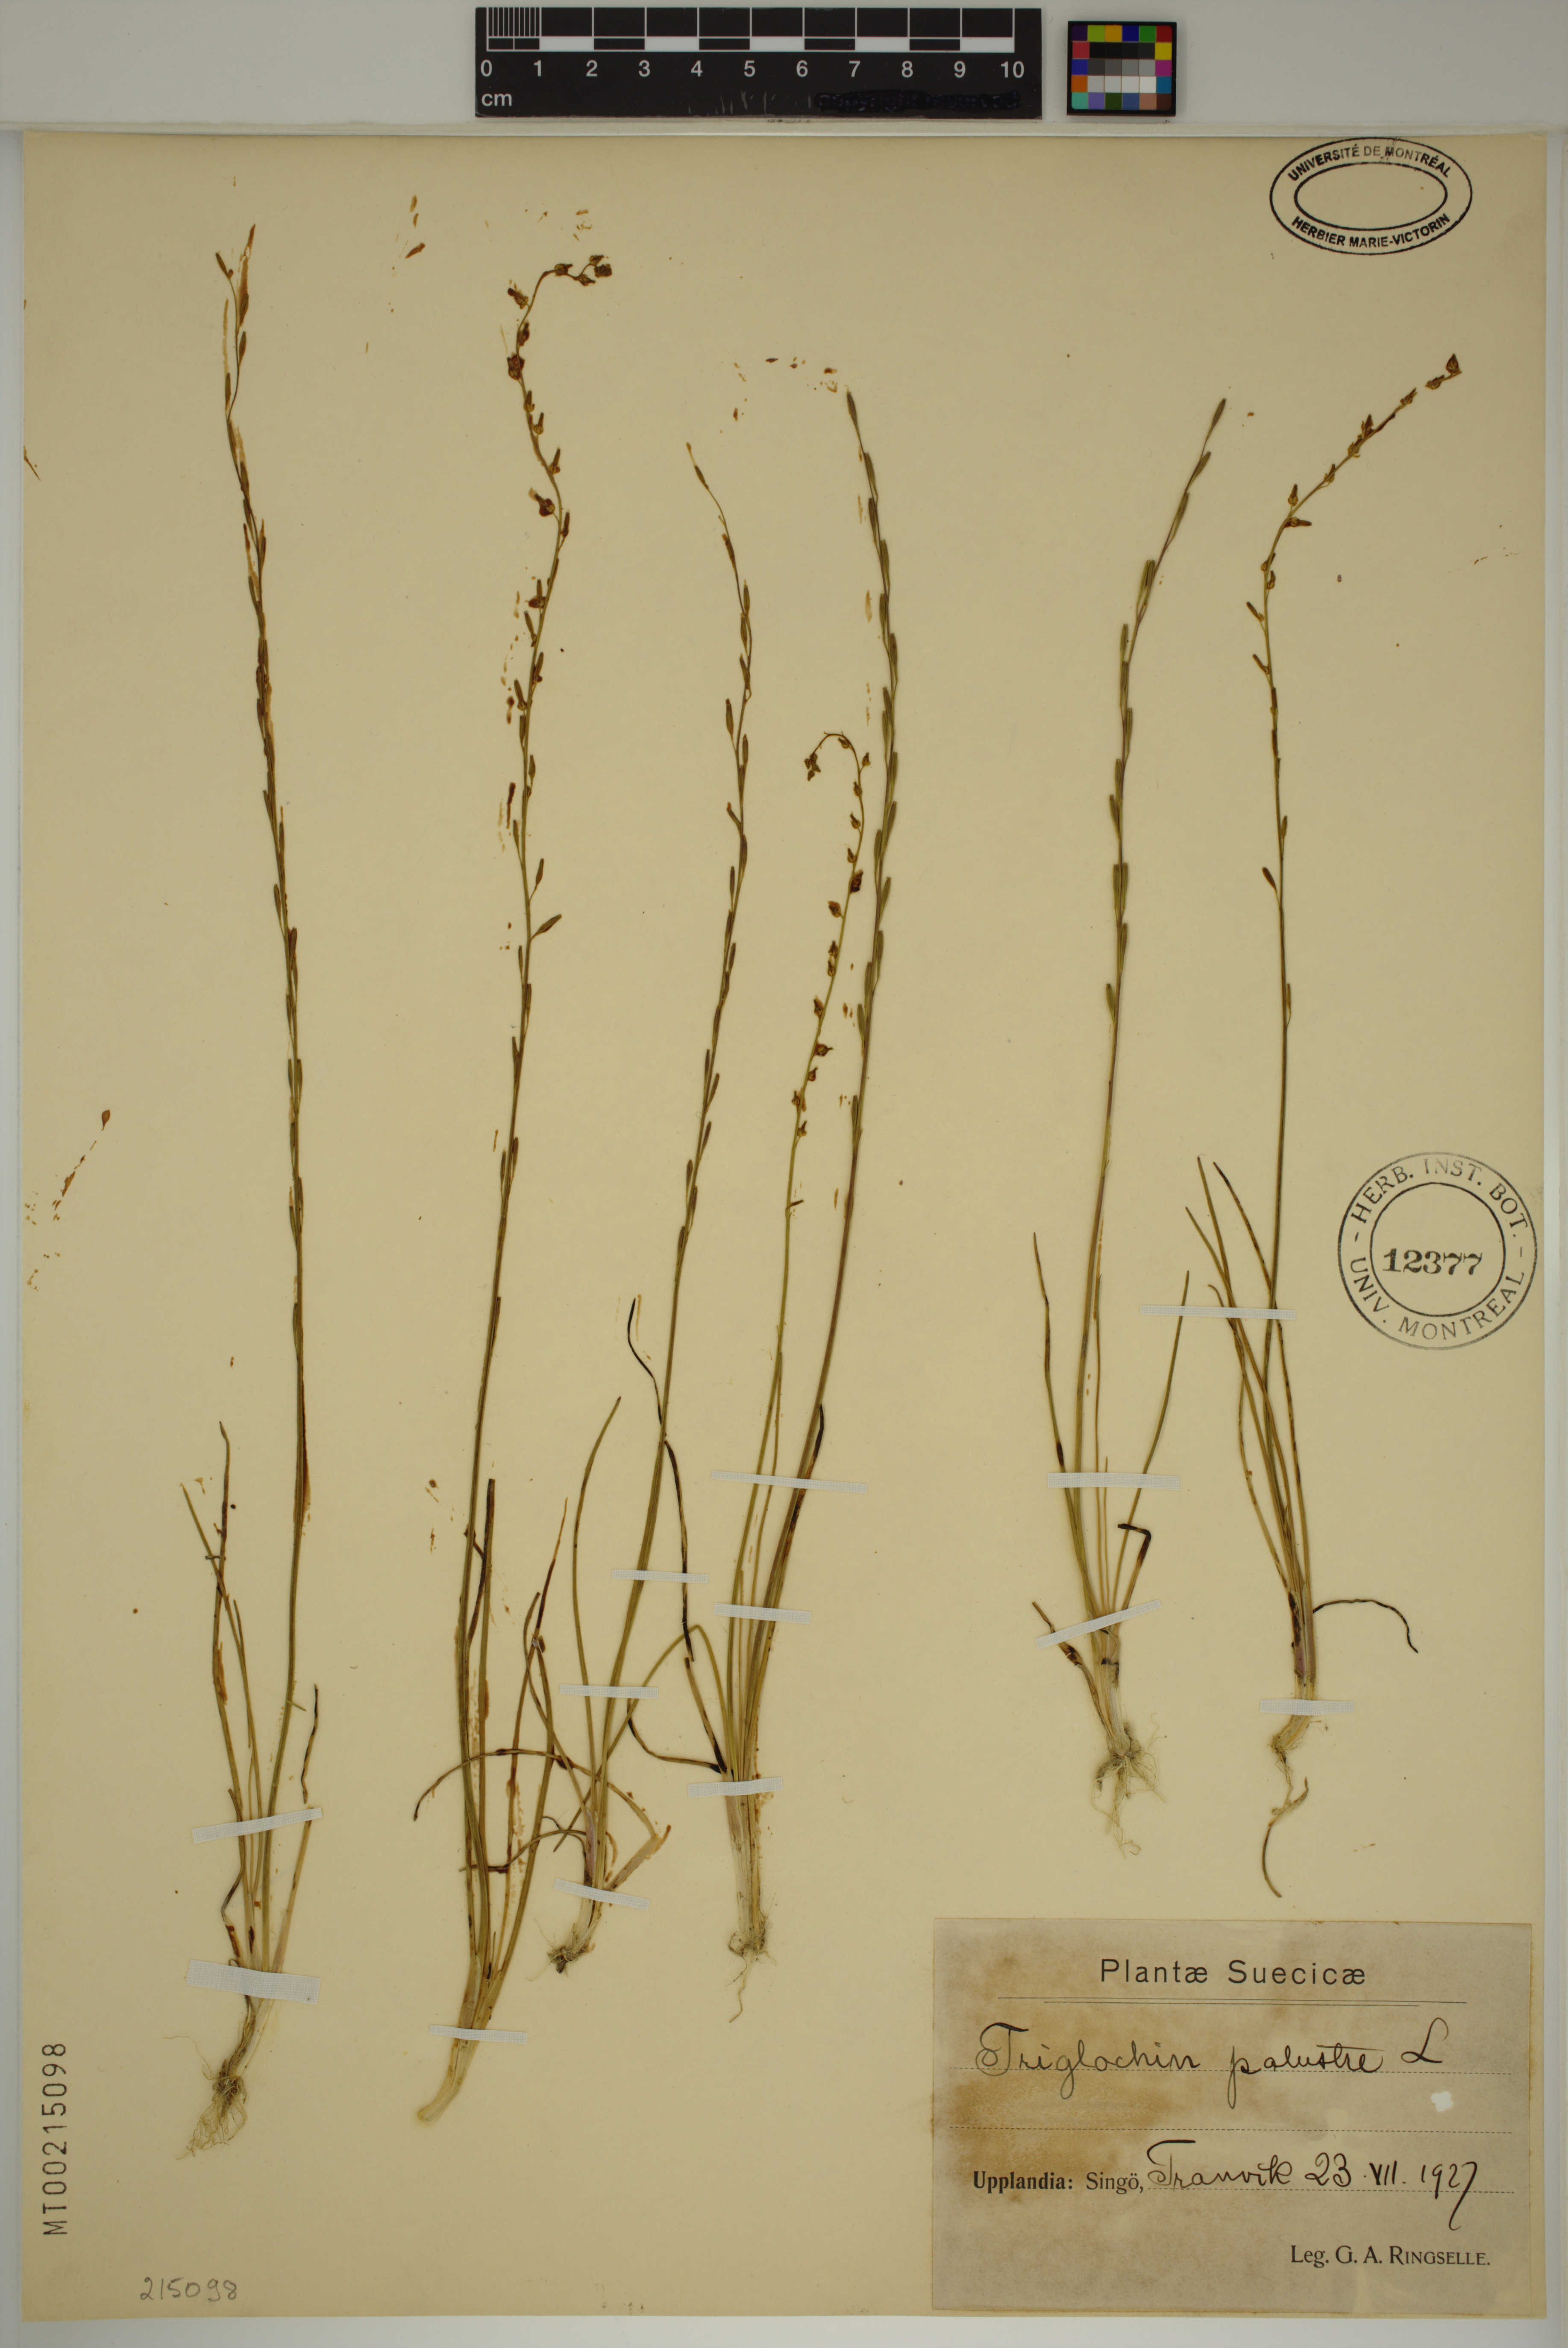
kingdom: Plantae
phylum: Tracheophyta
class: Liliopsida
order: Alismatales
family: Juncaginaceae
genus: Triglochin
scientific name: Triglochin palustris
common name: Marsh arrowgrass
